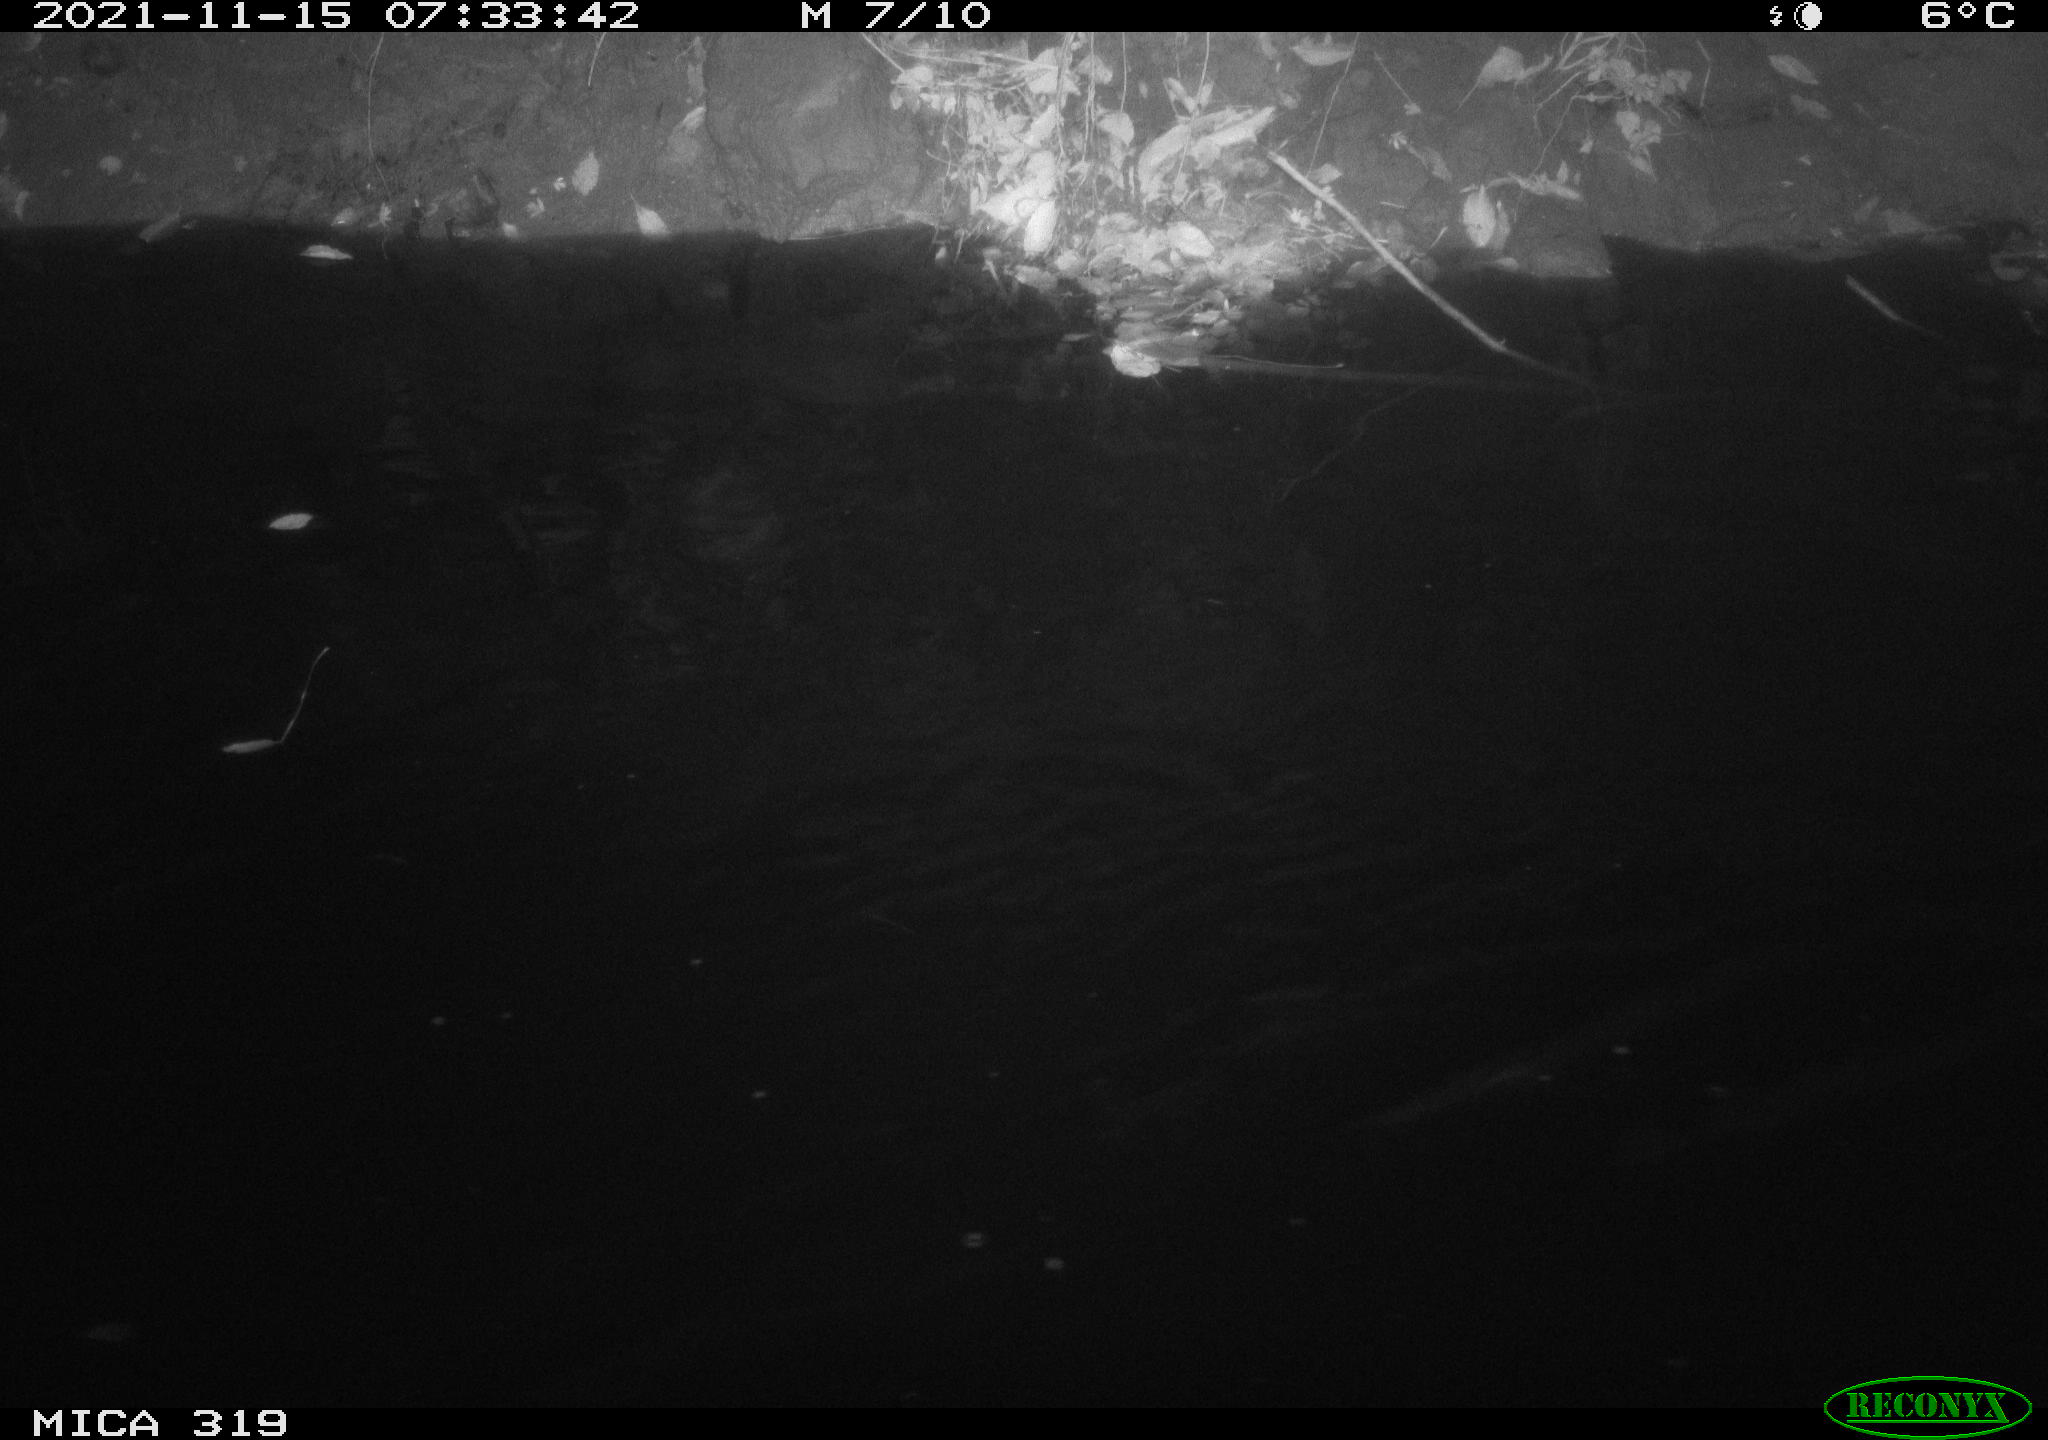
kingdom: Animalia
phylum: Chordata
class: Aves
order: Anseriformes
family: Anatidae
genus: Anas
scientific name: Anas platyrhynchos
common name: Mallard
